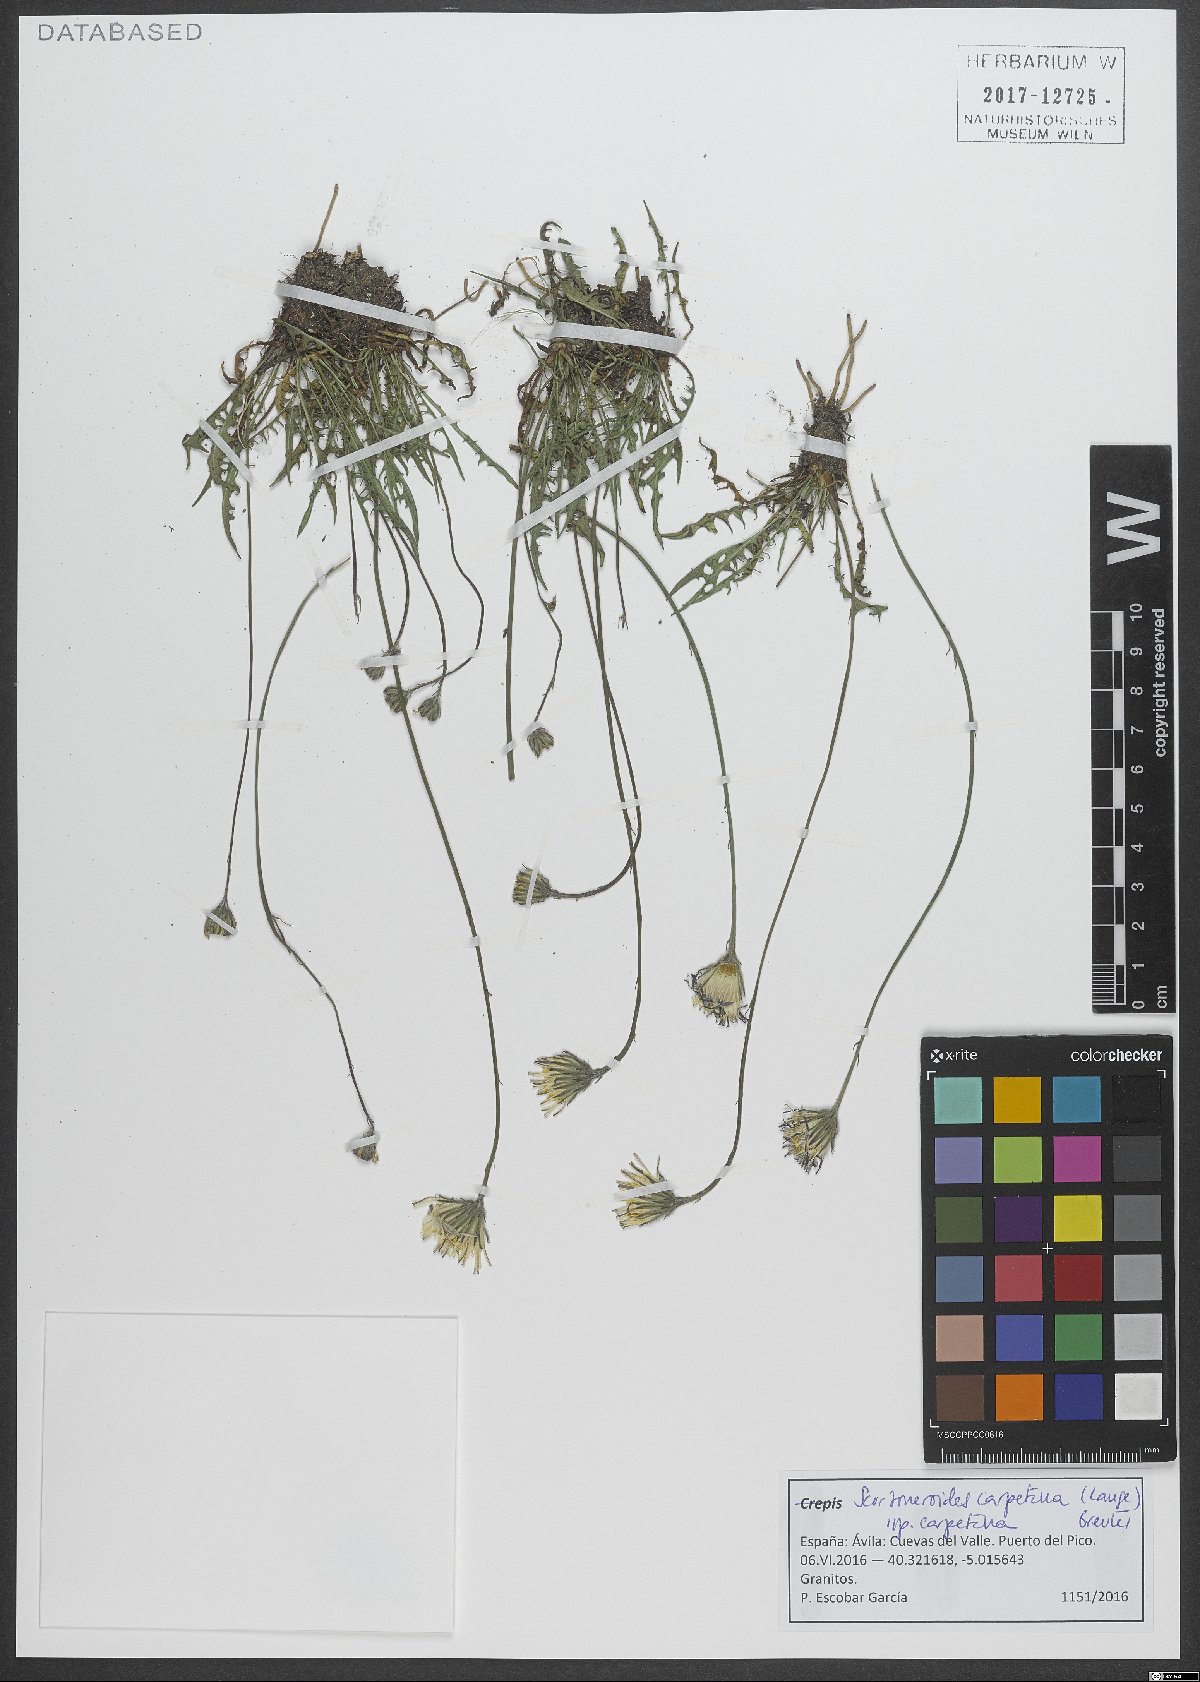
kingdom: Plantae
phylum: Tracheophyta
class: Magnoliopsida
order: Asterales
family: Asteraceae
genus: Scorzoneroides
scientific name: Scorzoneroides carpetana
